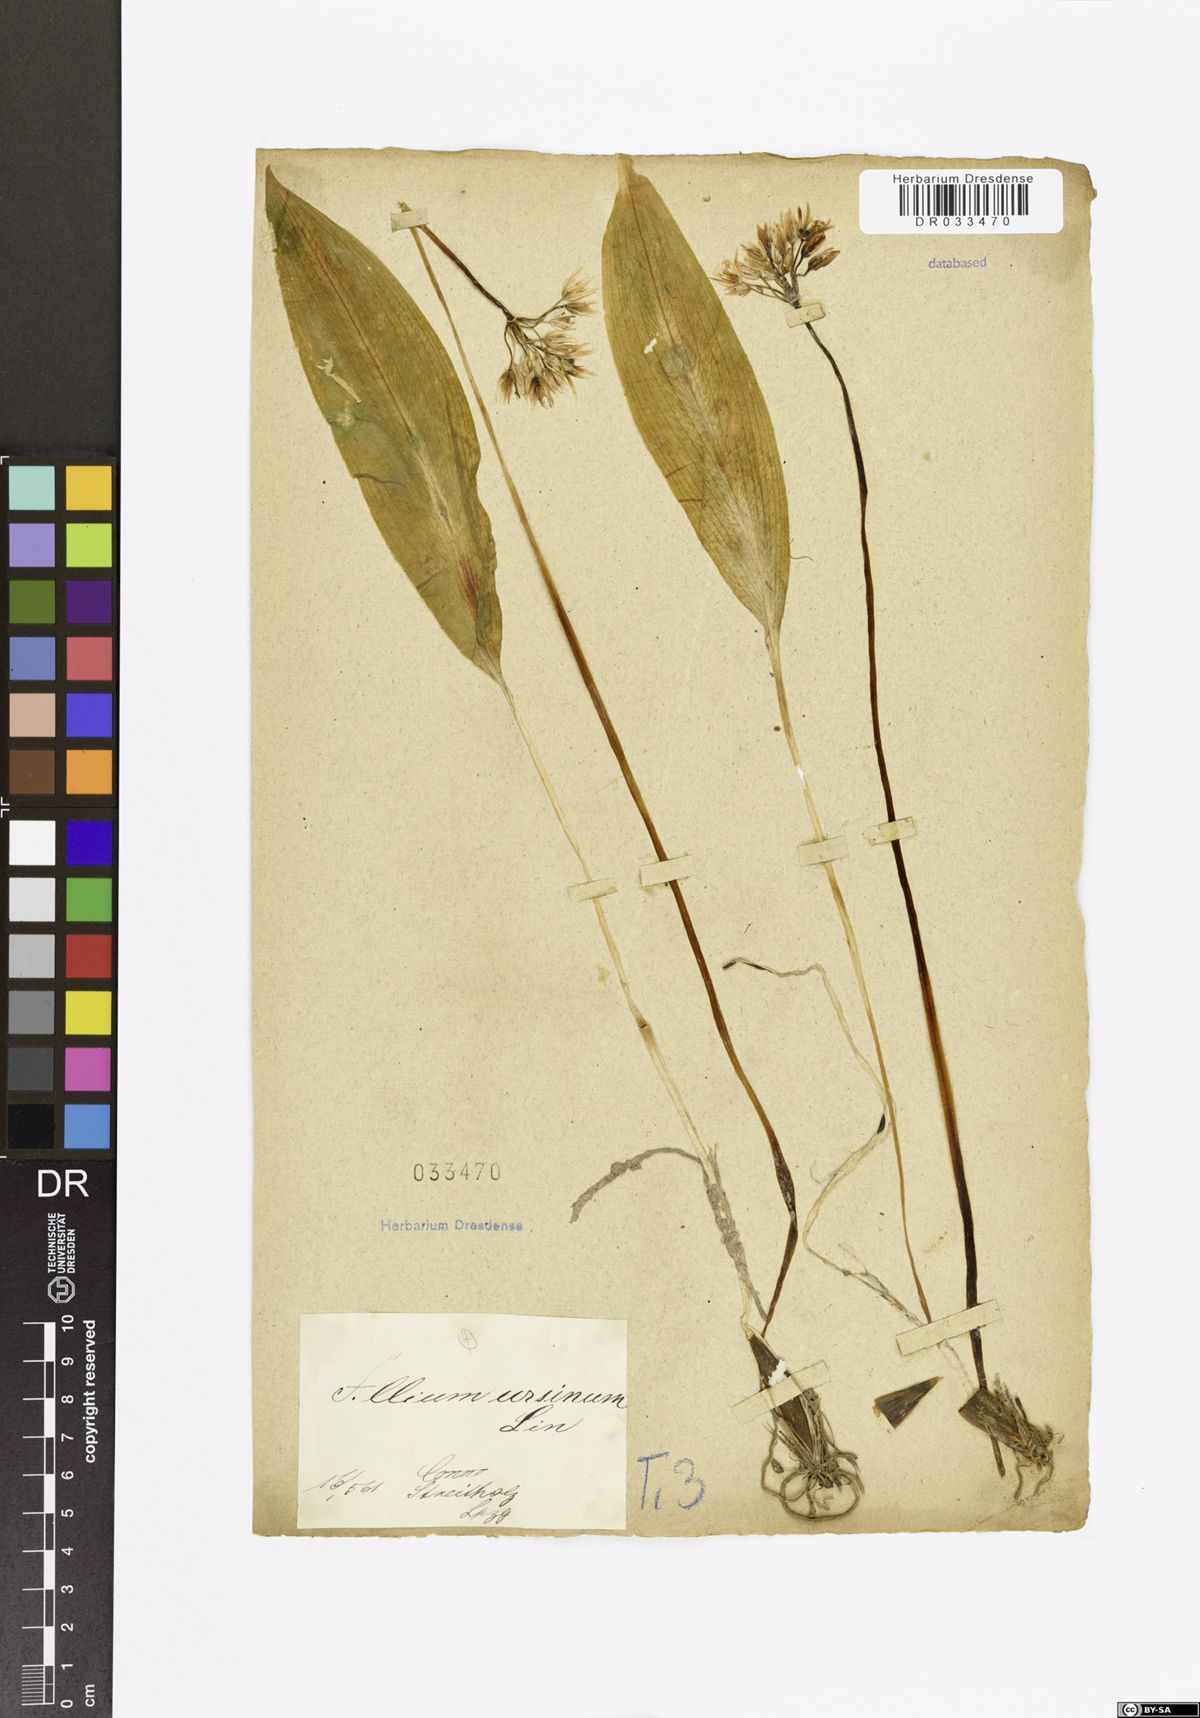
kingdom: Plantae
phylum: Tracheophyta
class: Liliopsida
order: Asparagales
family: Amaryllidaceae
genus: Allium
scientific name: Allium ursinum
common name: Ramsons
